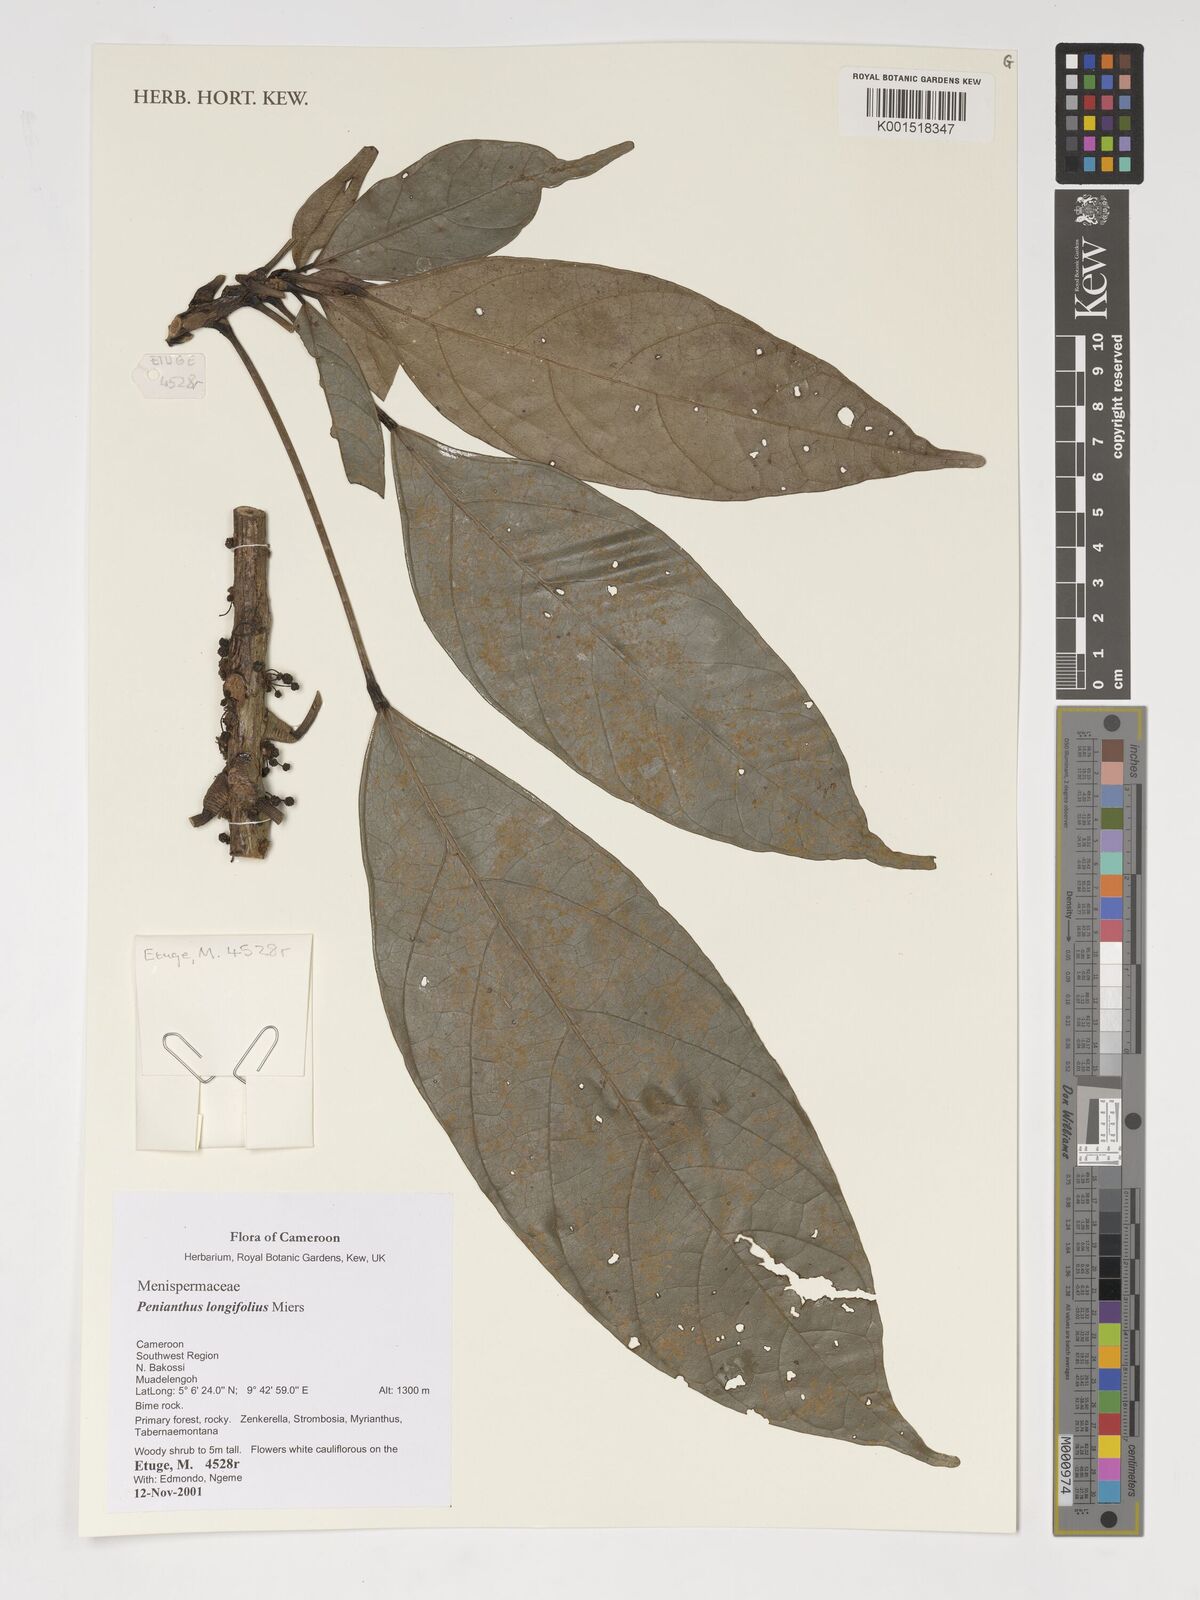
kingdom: Plantae
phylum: Tracheophyta
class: Magnoliopsida
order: Ranunculales
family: Menispermaceae
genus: Penianthus
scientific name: Penianthus longifolius
